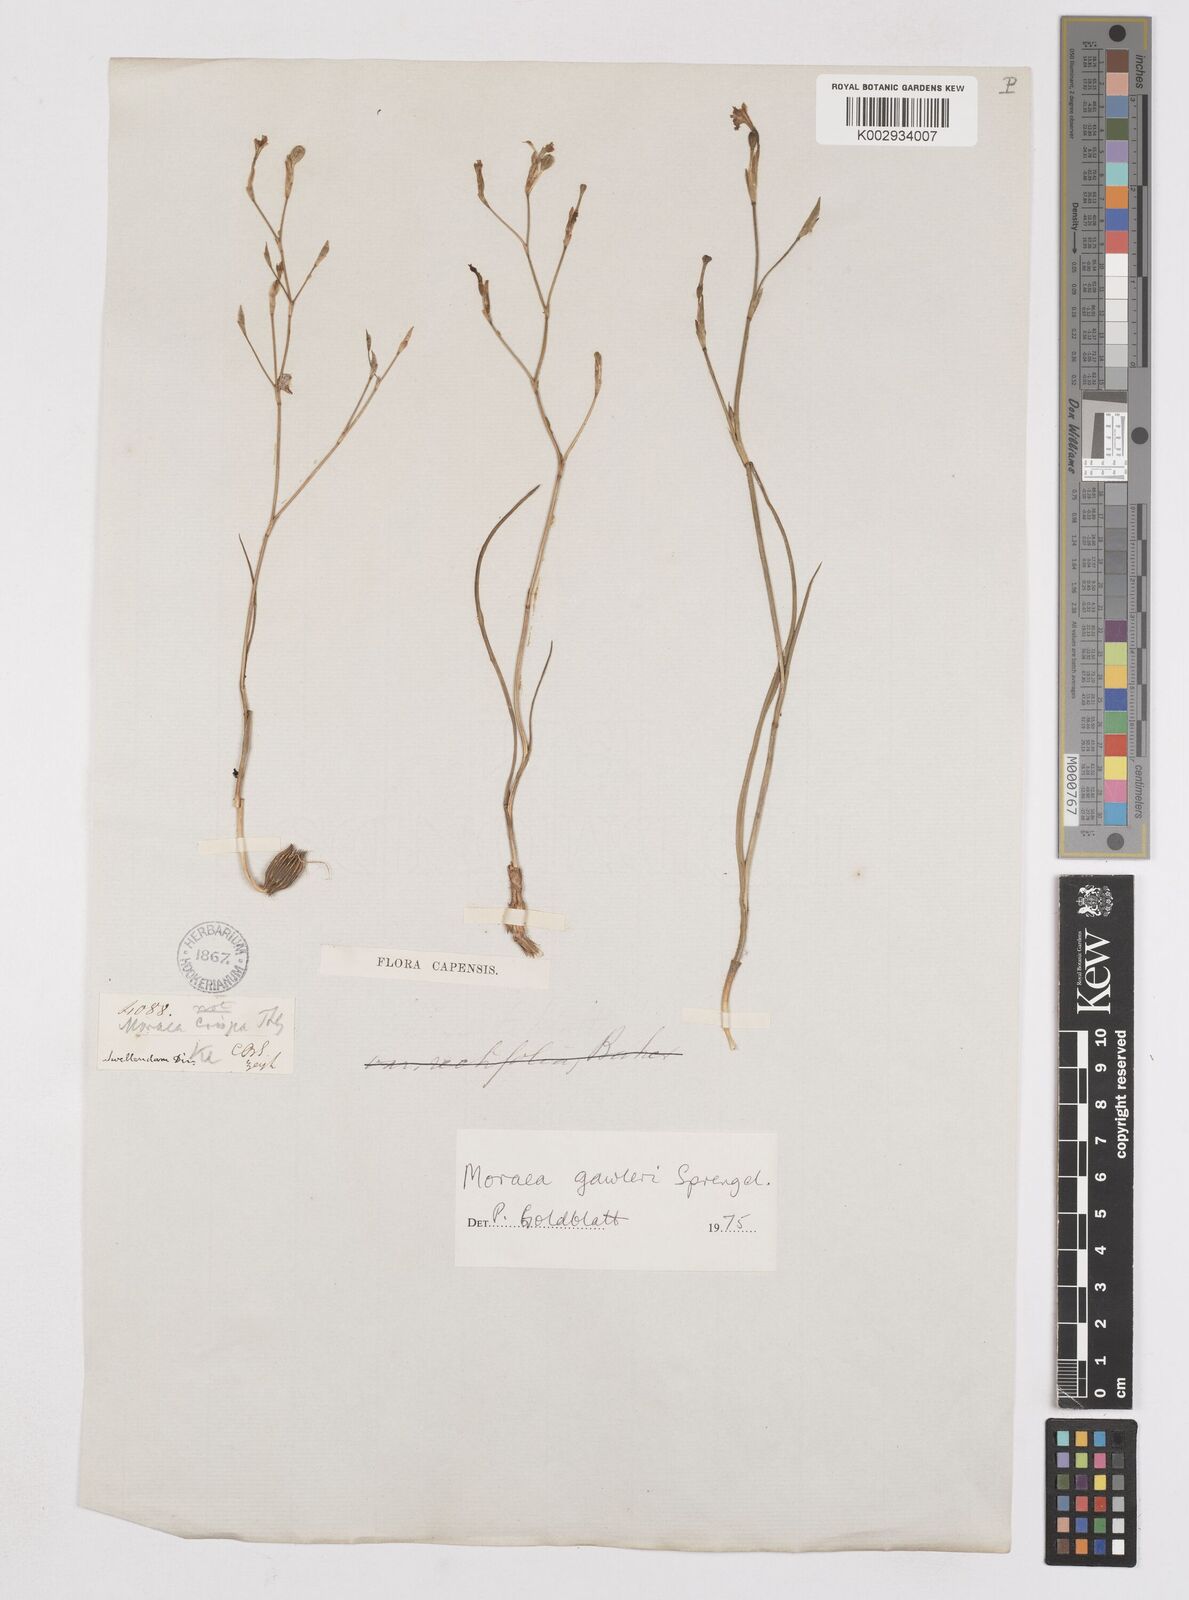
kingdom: Plantae
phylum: Tracheophyta
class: Liliopsida
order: Asparagales
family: Iridaceae
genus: Moraea
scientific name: Moraea gawleri
